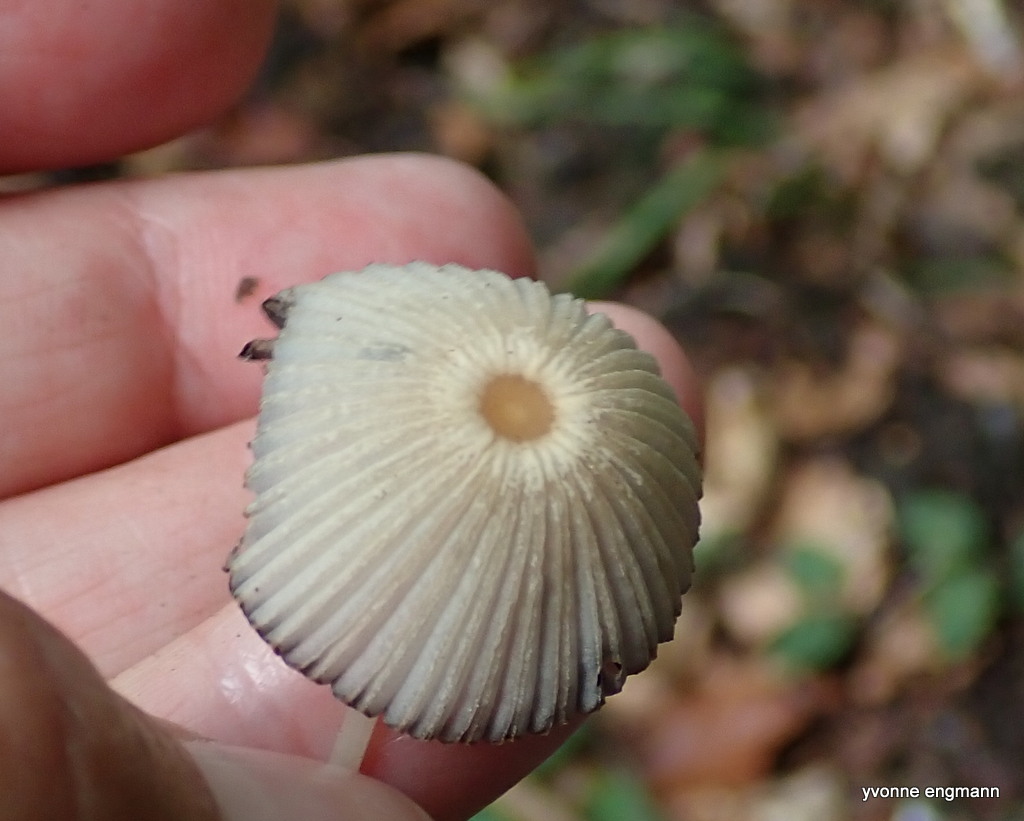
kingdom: Fungi
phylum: Basidiomycota
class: Agaricomycetes
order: Agaricales
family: Psathyrellaceae
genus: Parasola
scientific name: Parasola
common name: hjulhat
